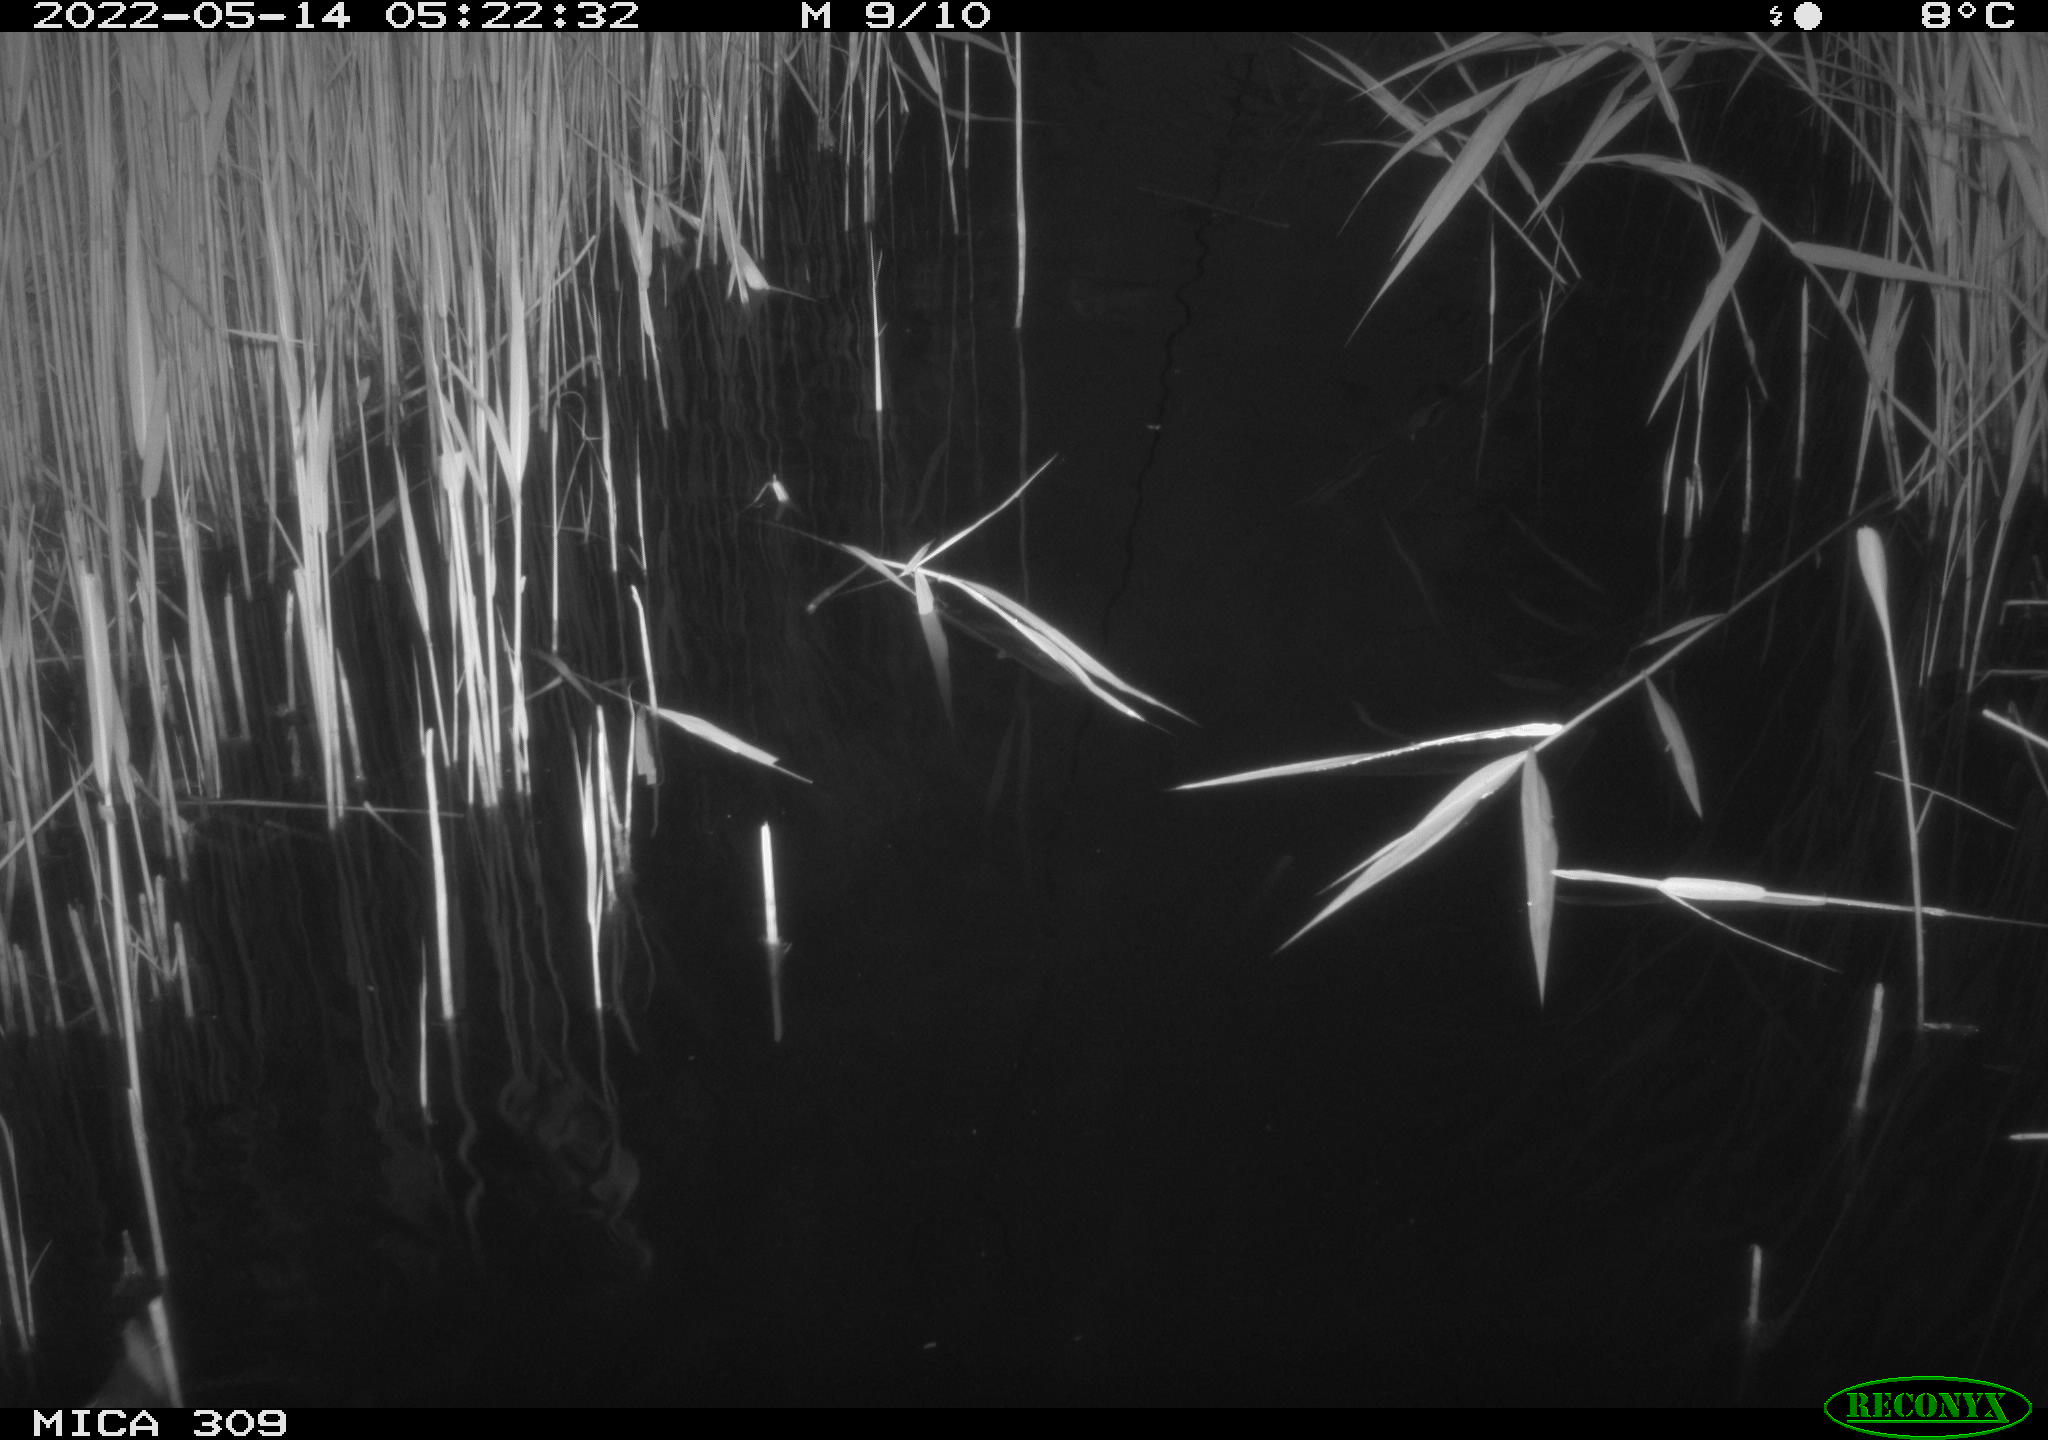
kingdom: Animalia
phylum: Chordata
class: Aves
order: Gruiformes
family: Rallidae
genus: Gallinula
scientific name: Gallinula chloropus
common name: Common moorhen
